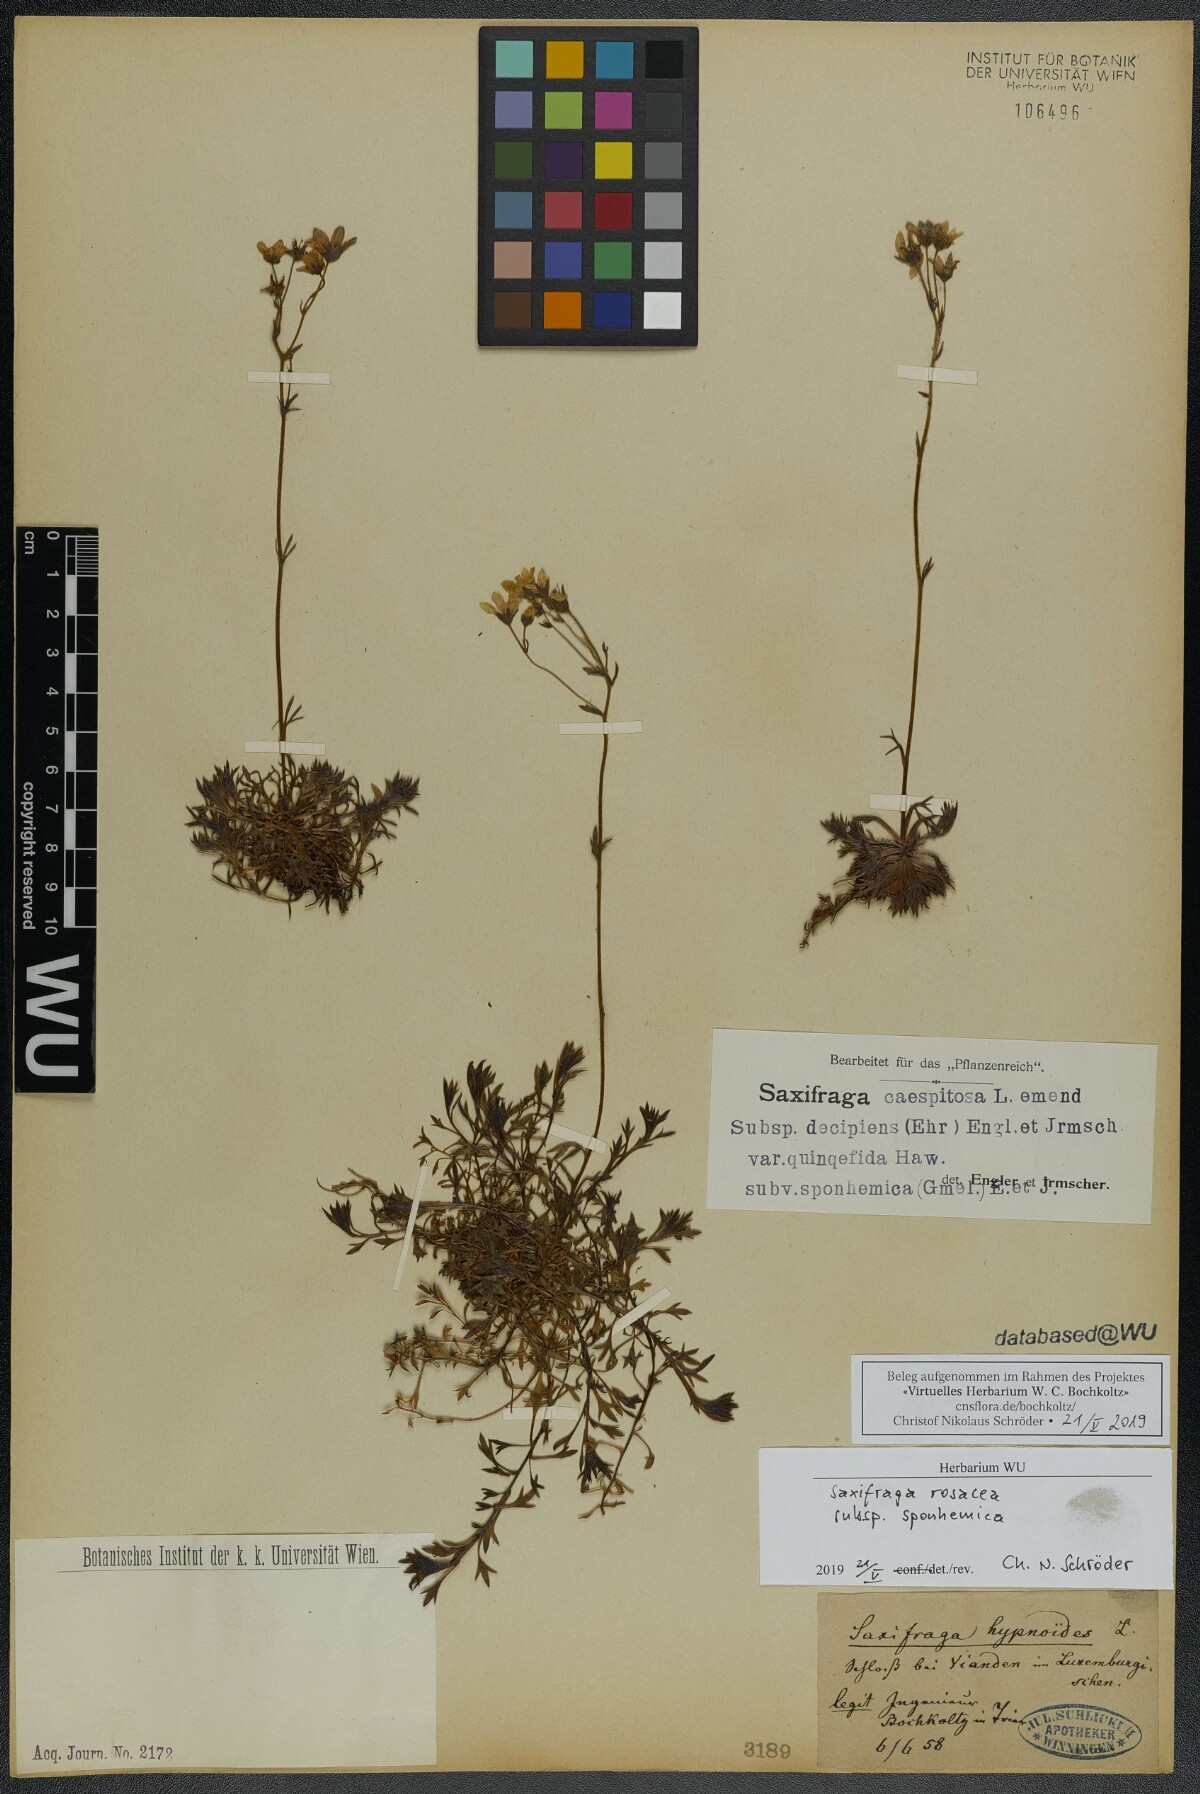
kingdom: Plantae
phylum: Tracheophyta
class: Magnoliopsida
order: Saxifragales
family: Saxifragaceae
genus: Saxifraga
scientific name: Saxifraga rosacea
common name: Irish saxifrage
